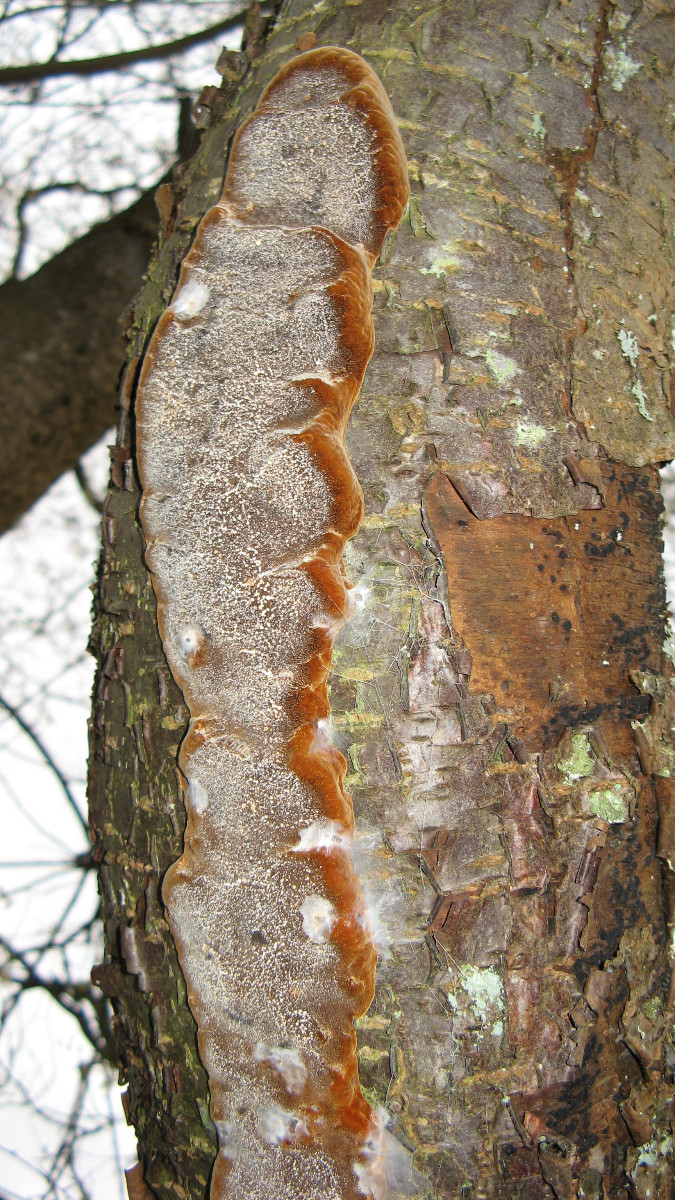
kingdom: Fungi
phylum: Basidiomycota
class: Agaricomycetes
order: Hymenochaetales
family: Hymenochaetaceae
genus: Phellinus
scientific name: Phellinus pomaceus
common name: blomme-ildporesvamp
